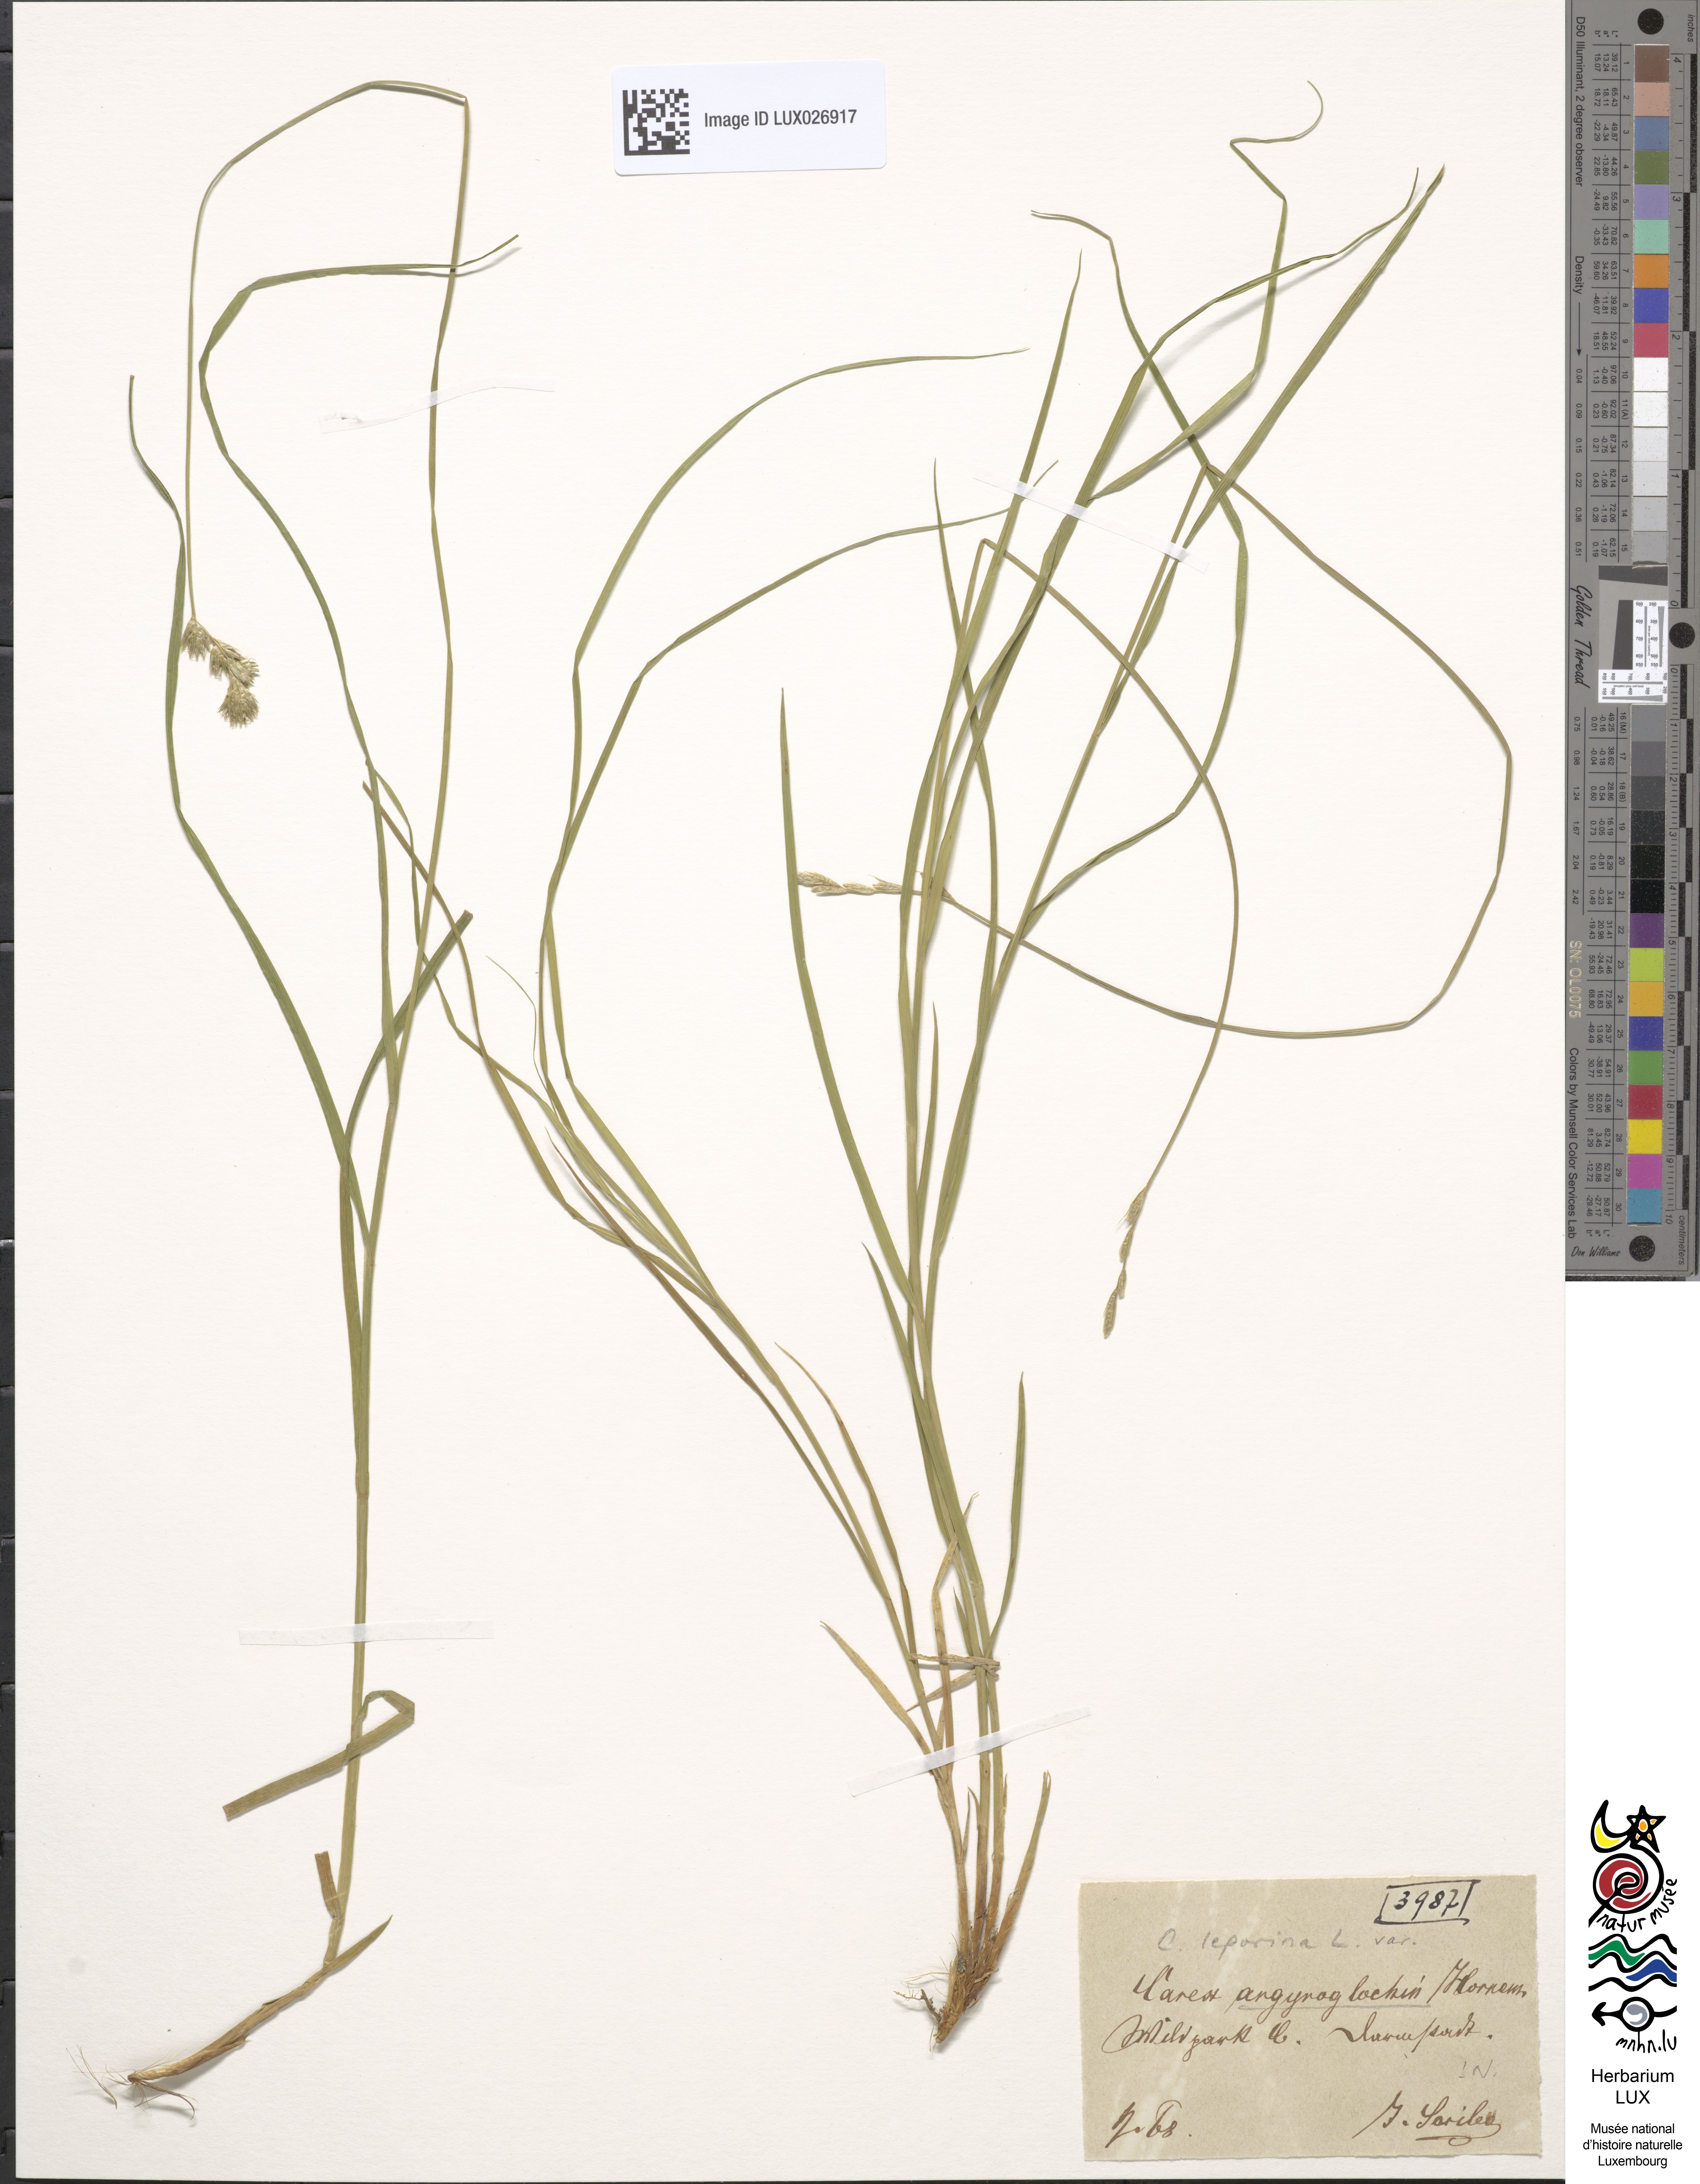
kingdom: Plantae
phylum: Tracheophyta
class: Liliopsida
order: Poales
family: Cyperaceae
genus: Carex
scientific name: Carex leporina
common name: Oval sedge
